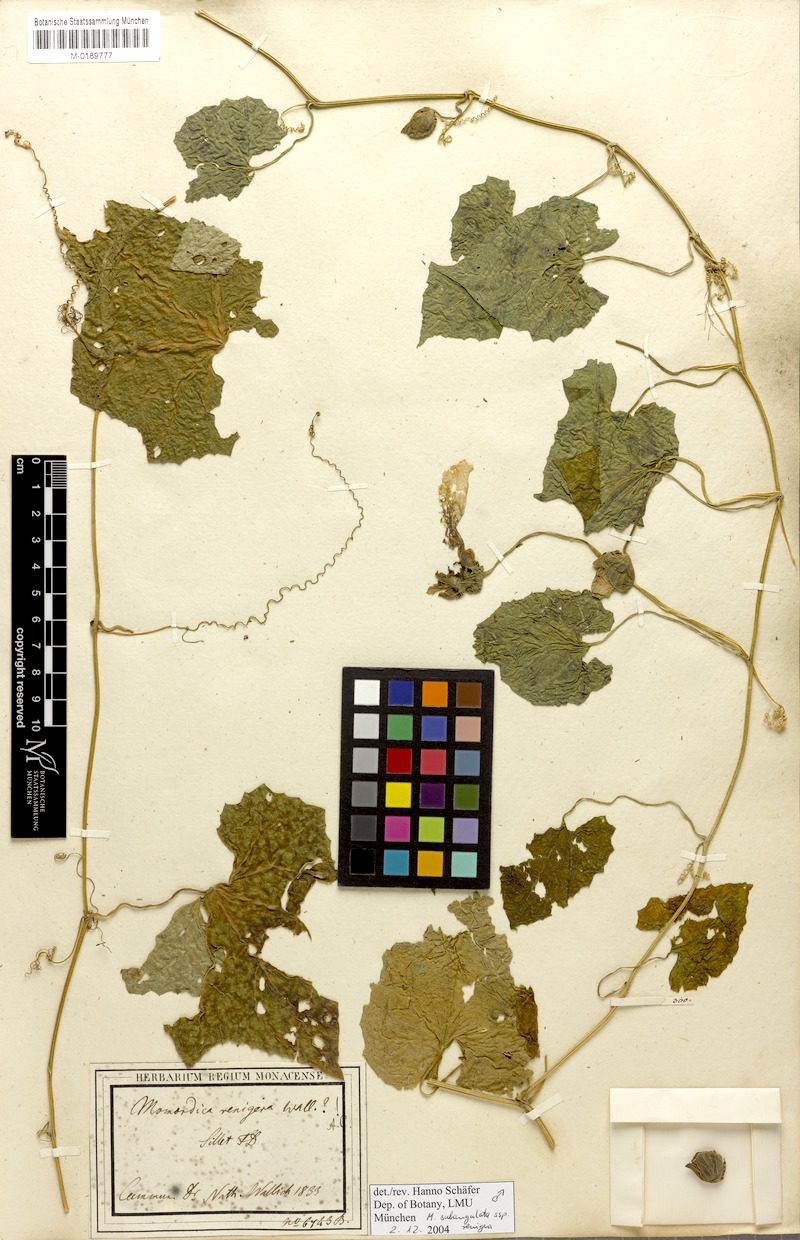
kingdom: Plantae
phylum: Tracheophyta
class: Magnoliopsida
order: Cucurbitales
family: Cucurbitaceae
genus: Momordica
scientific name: Momordica subangulata
